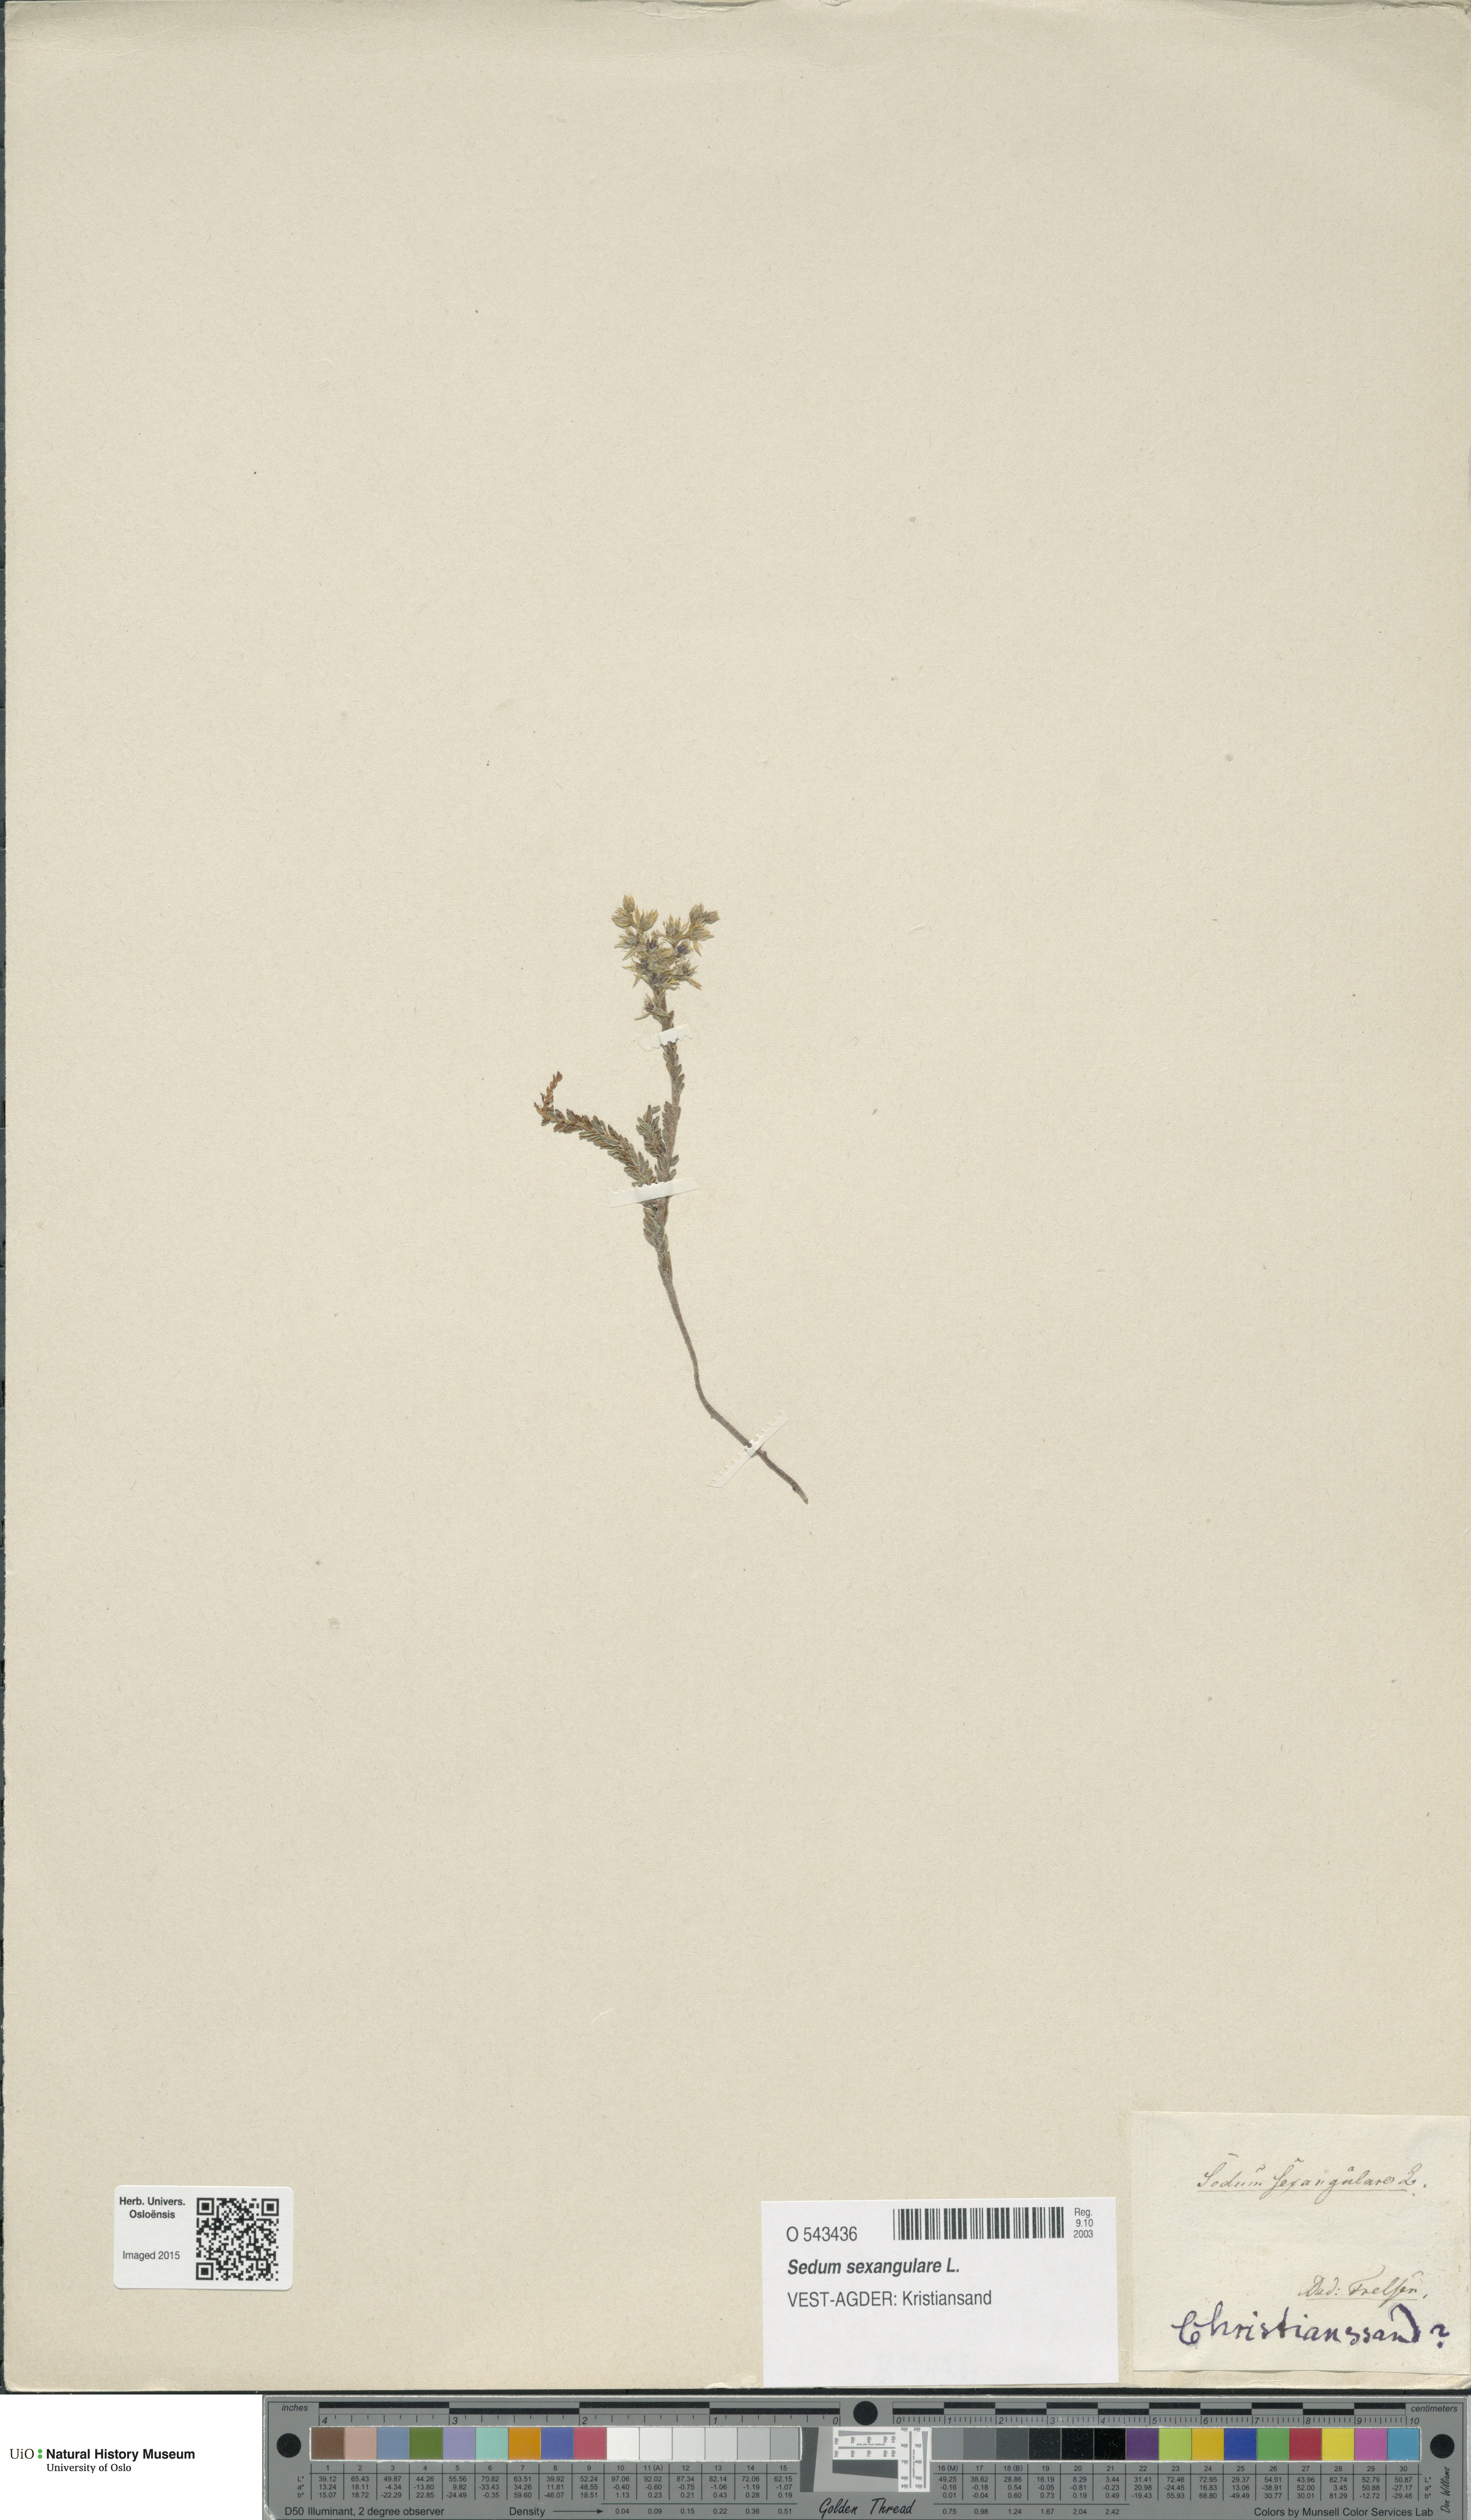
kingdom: Plantae
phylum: Tracheophyta
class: Magnoliopsida
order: Saxifragales
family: Crassulaceae
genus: Sedum
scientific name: Sedum sexangulare
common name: Tasteless stonecrop
